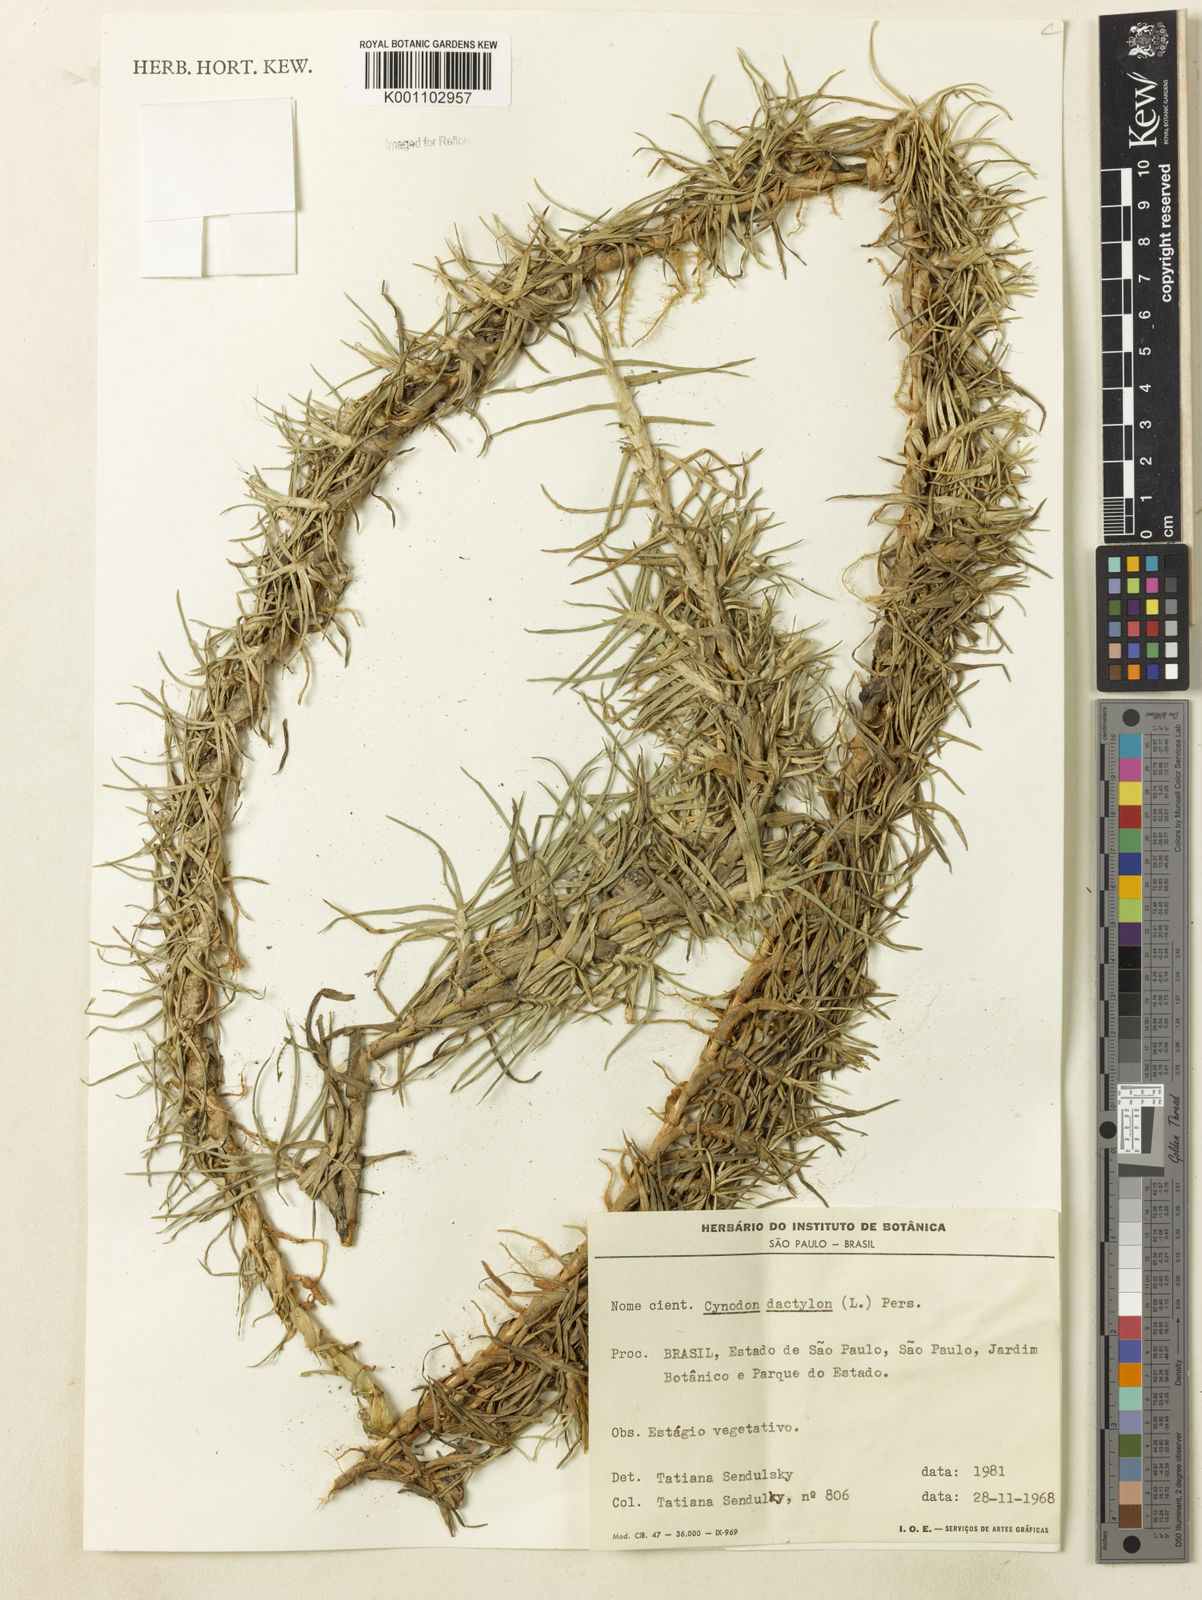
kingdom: Plantae
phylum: Tracheophyta
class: Liliopsida
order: Poales
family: Poaceae
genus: Cenchrus
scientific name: Cenchrus clandestinus
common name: Kikuyugrass
